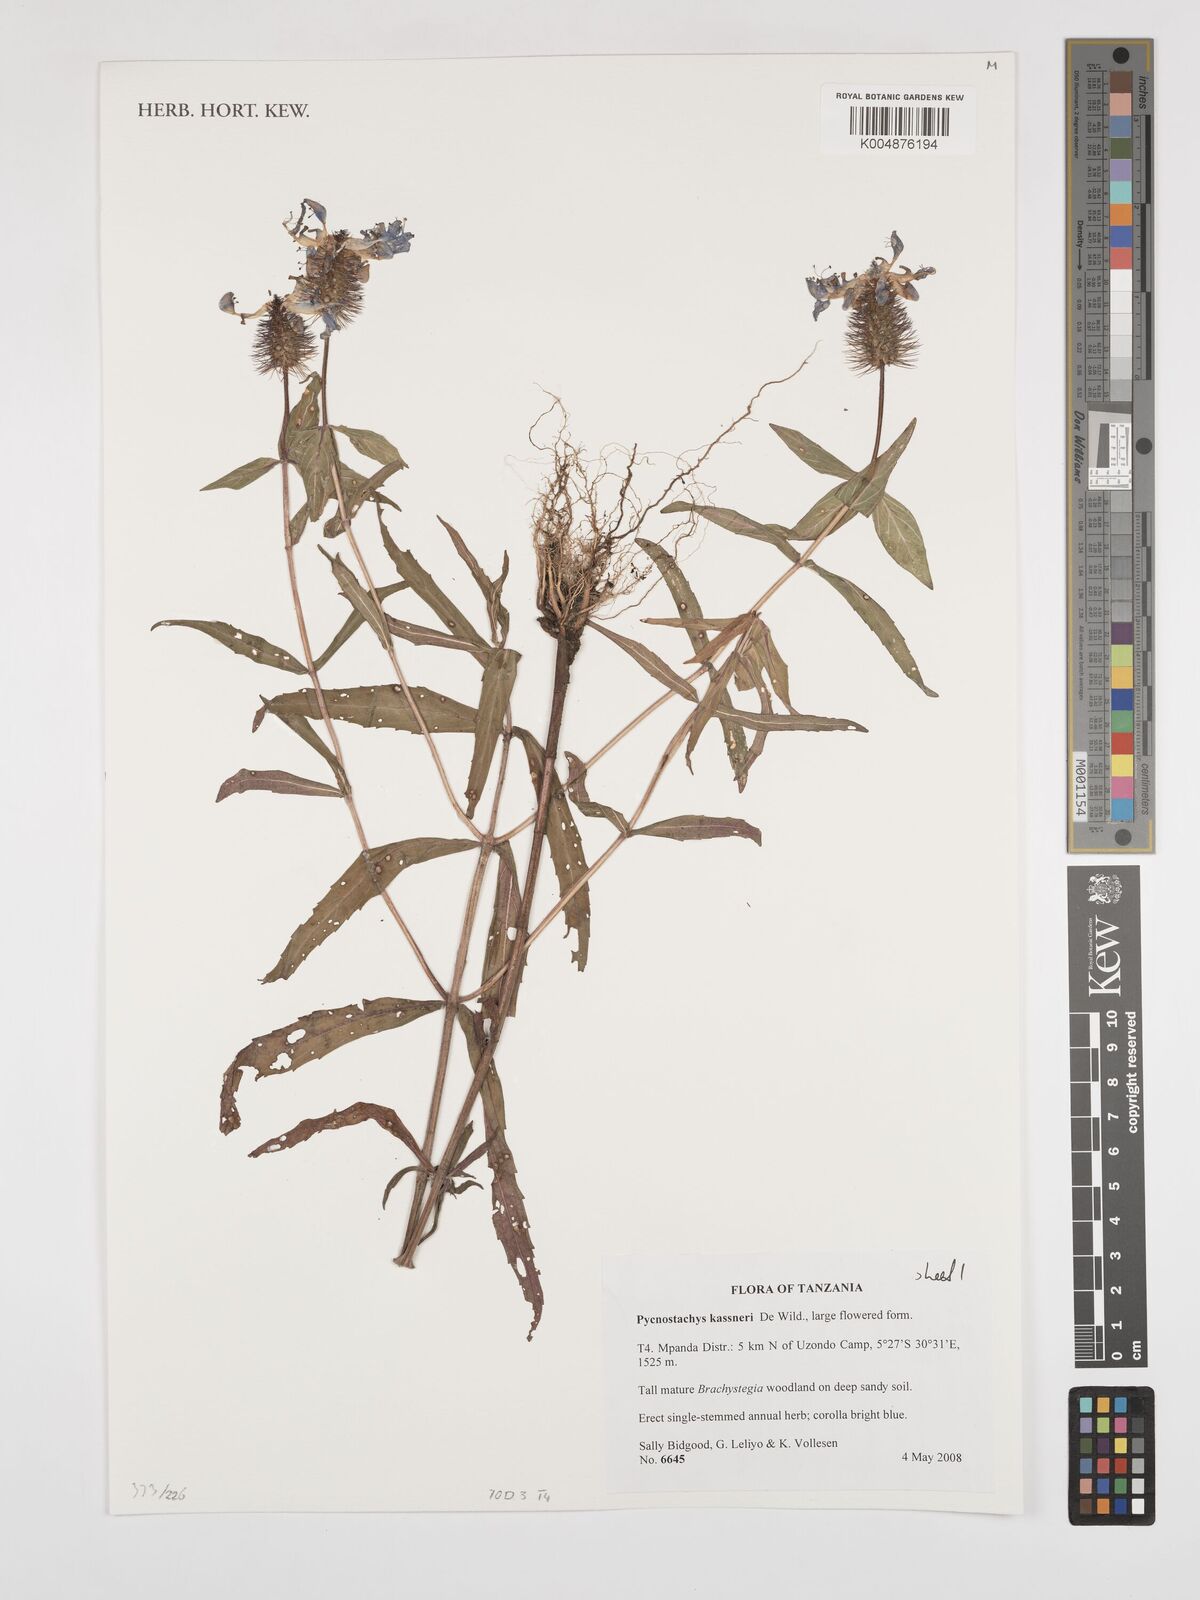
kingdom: Plantae
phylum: Tracheophyta
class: Magnoliopsida
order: Lamiales
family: Lamiaceae
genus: Coleus
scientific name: Coleus scruposus
